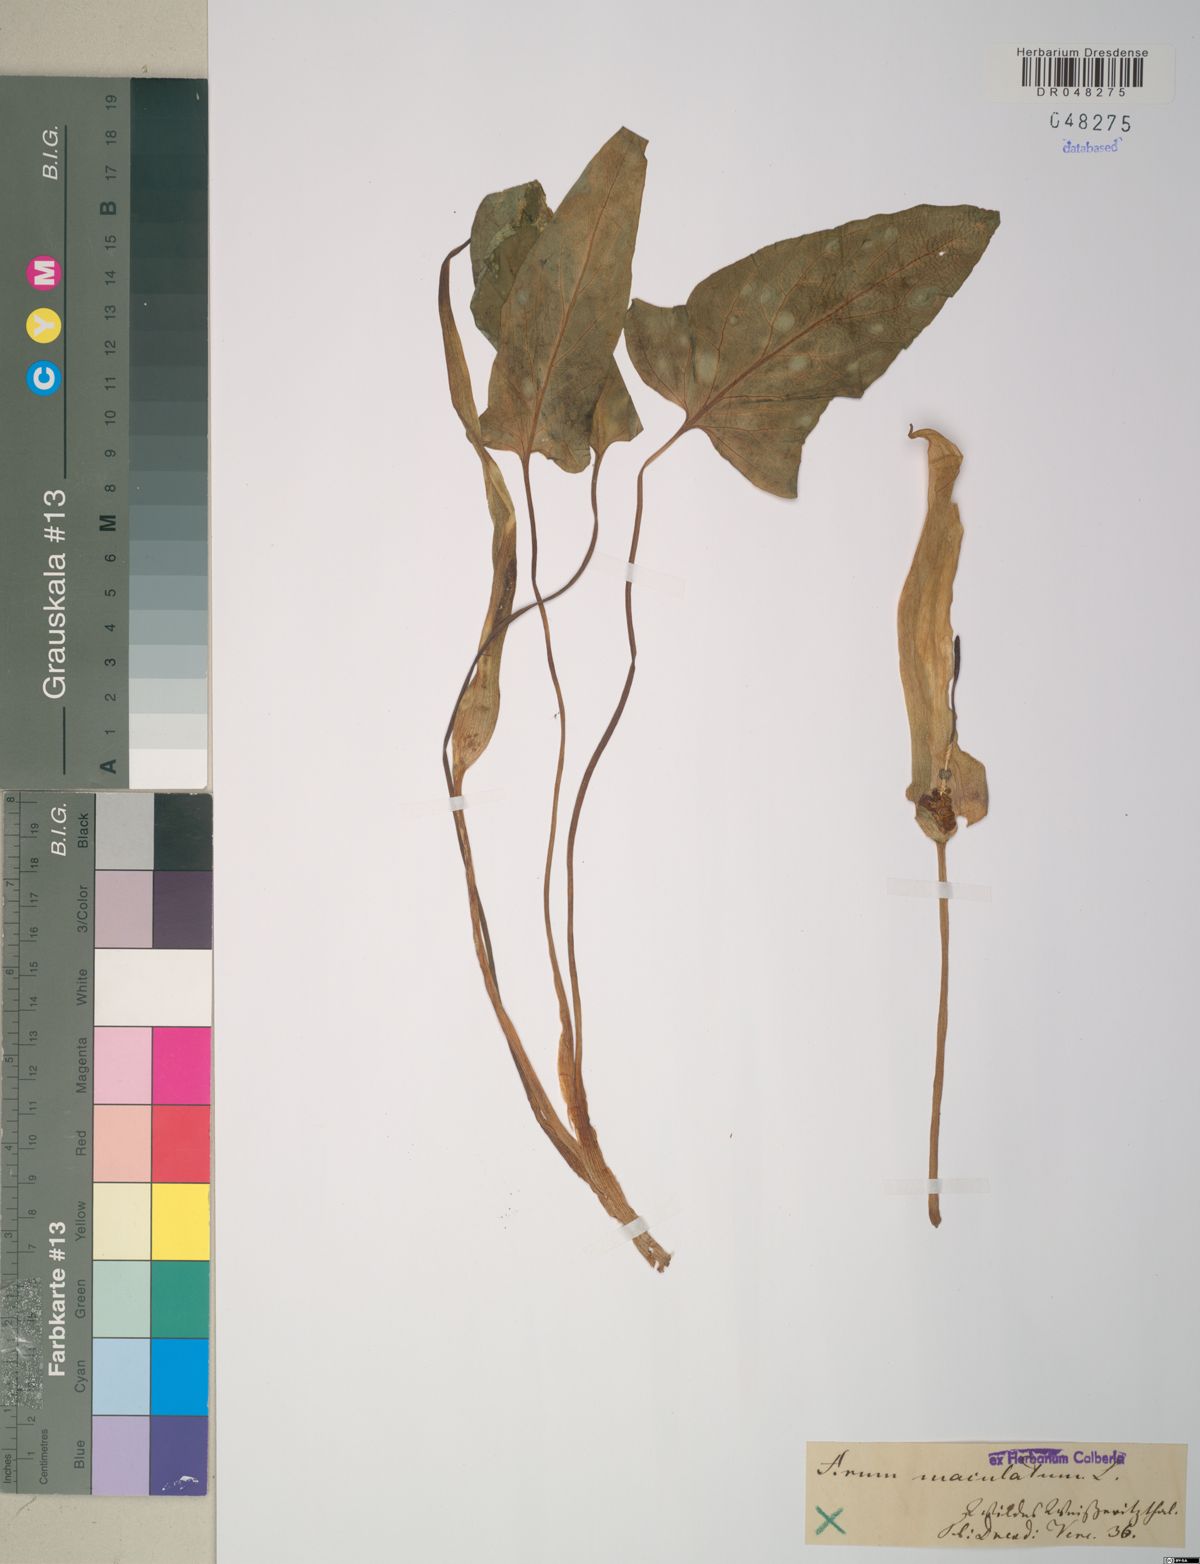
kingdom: Plantae
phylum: Tracheophyta
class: Liliopsida
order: Alismatales
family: Araceae
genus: Arum
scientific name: Arum maculatum
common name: Lords-and-ladies
